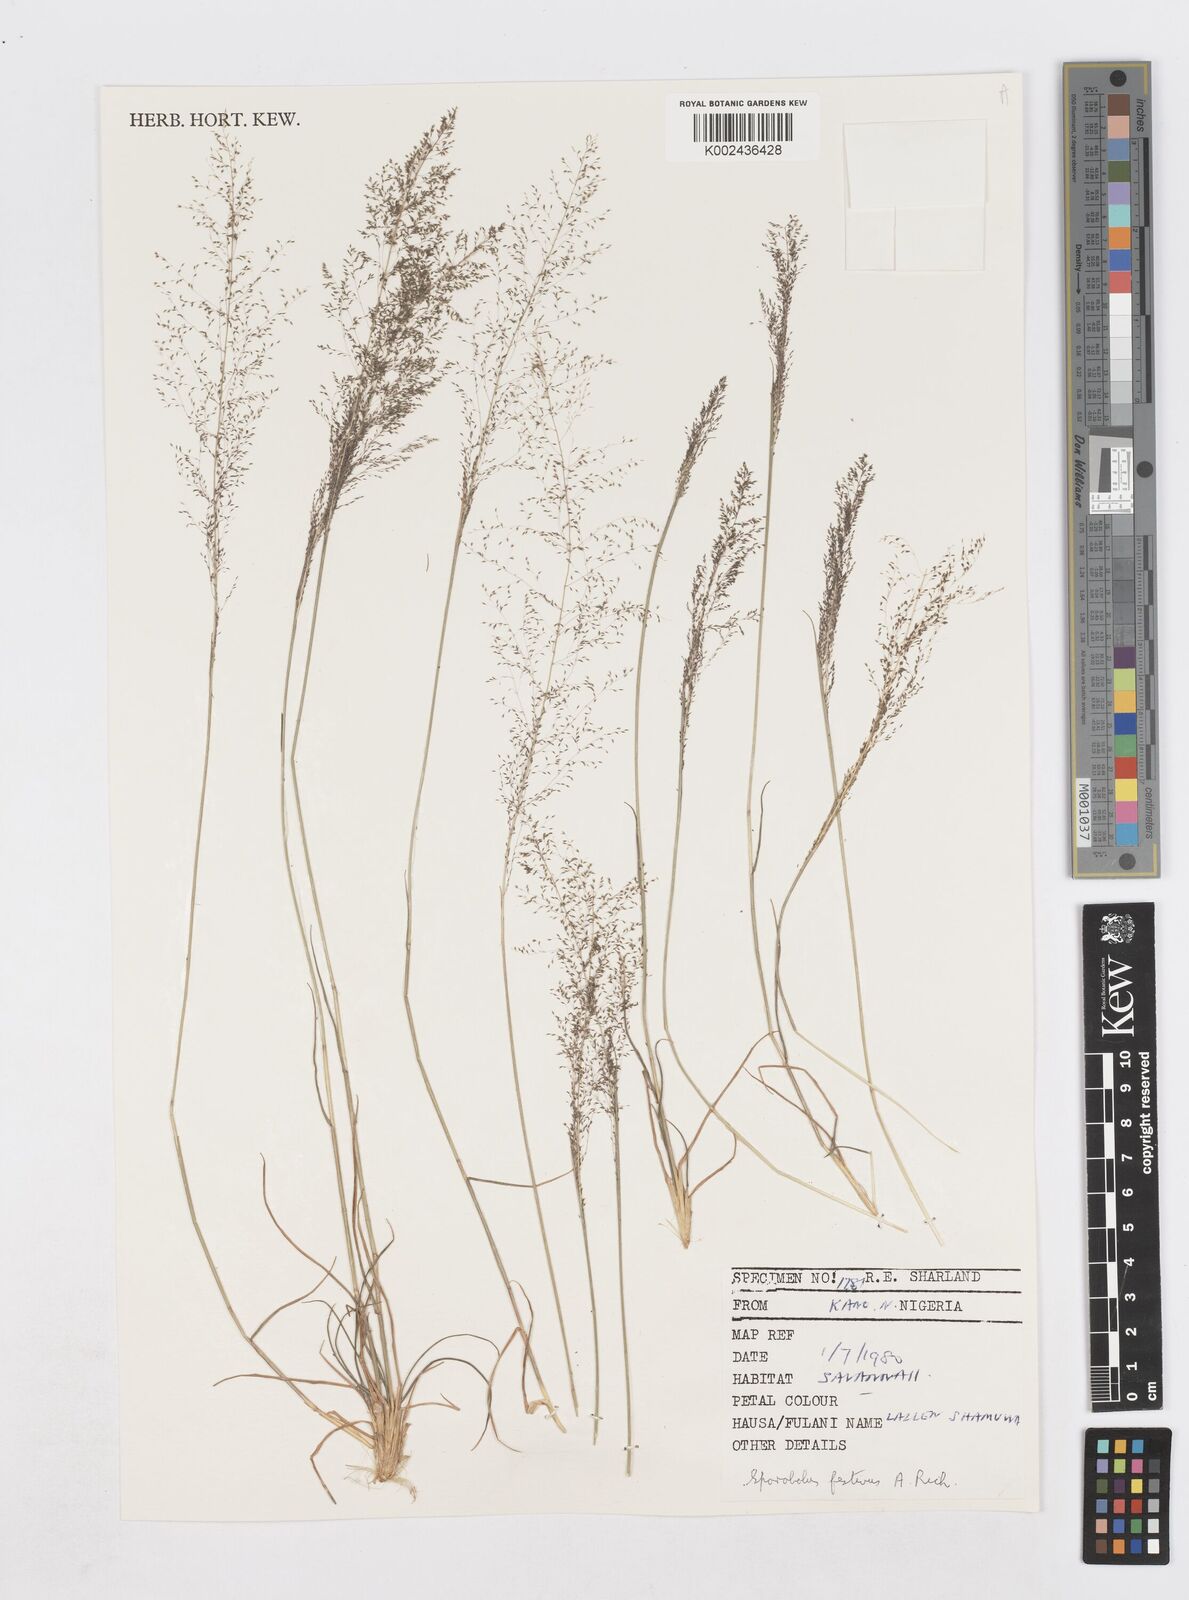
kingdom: Plantae
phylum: Tracheophyta
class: Liliopsida
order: Poales
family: Poaceae
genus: Sporobolus
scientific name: Sporobolus festivus
